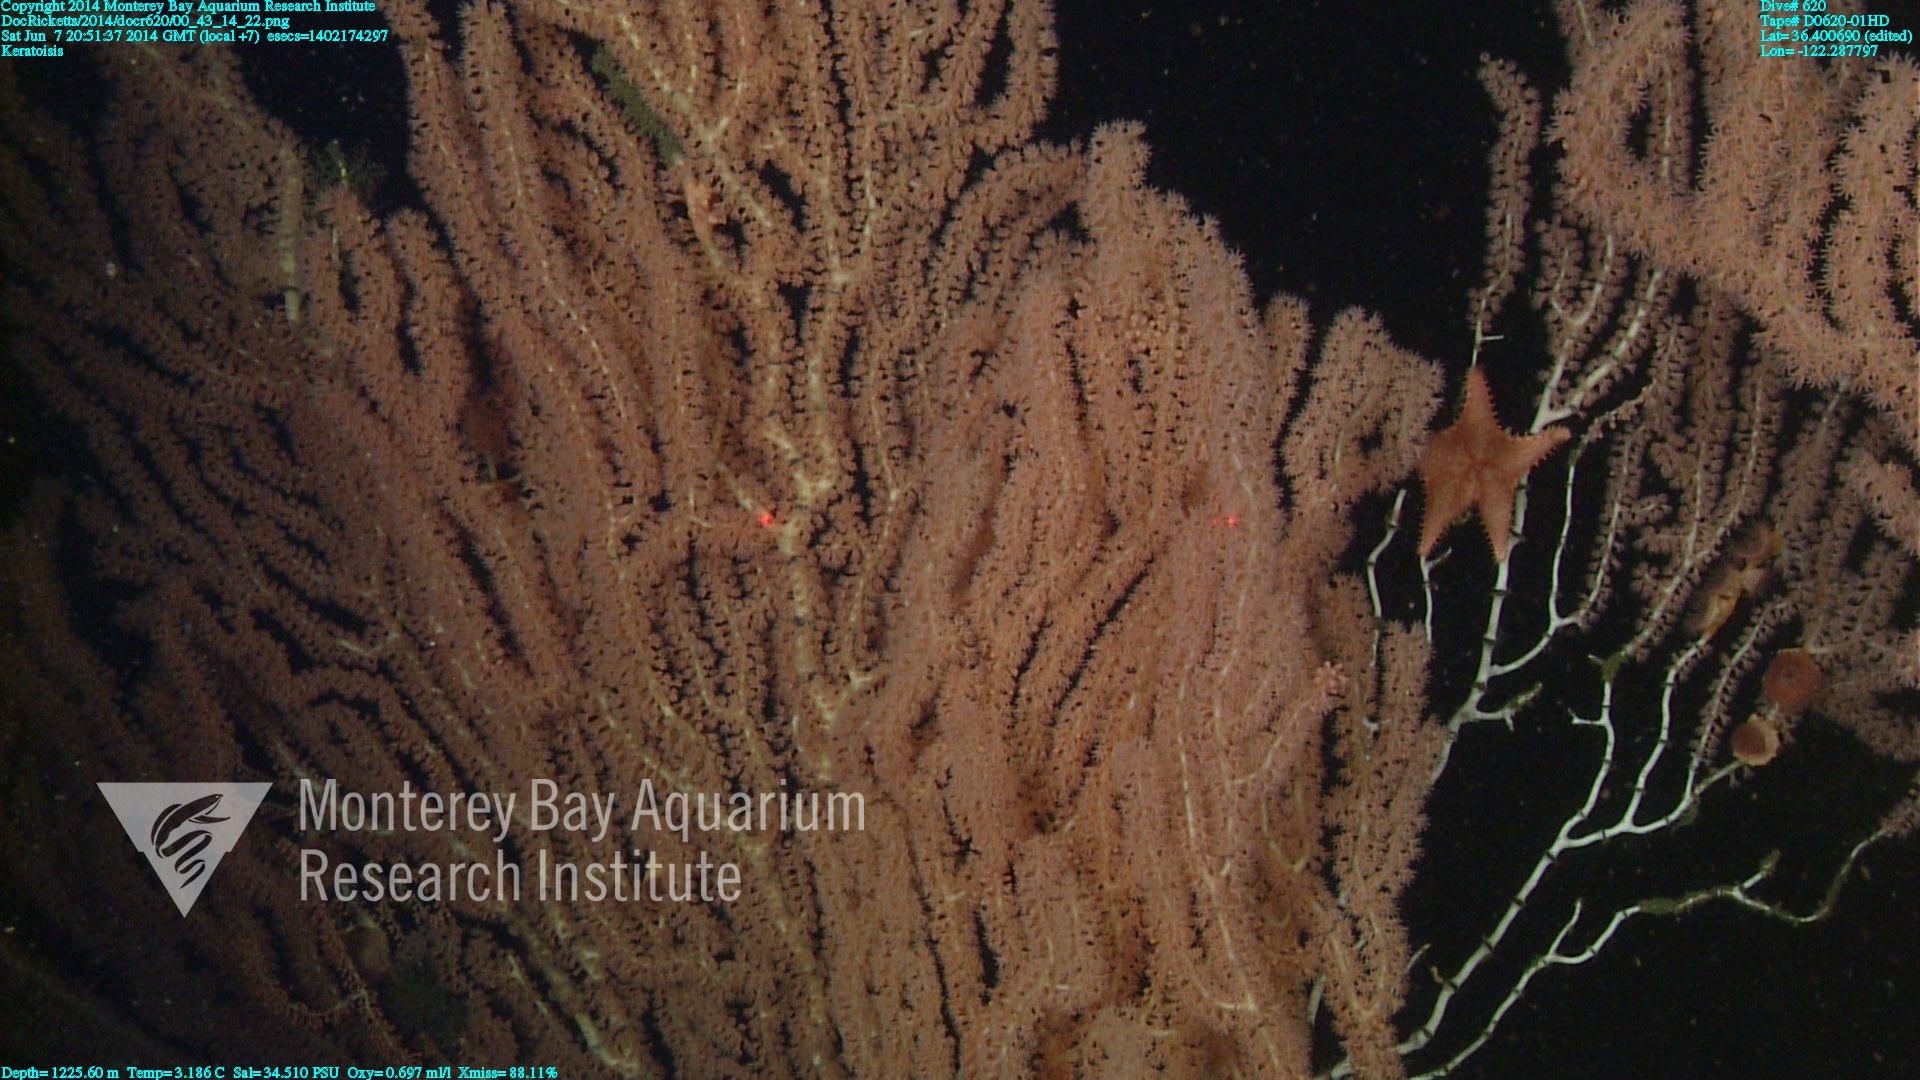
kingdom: Animalia
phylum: Cnidaria
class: Anthozoa
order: Scleralcyonacea
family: Keratoisididae
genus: Keratoisis
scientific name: Keratoisis
